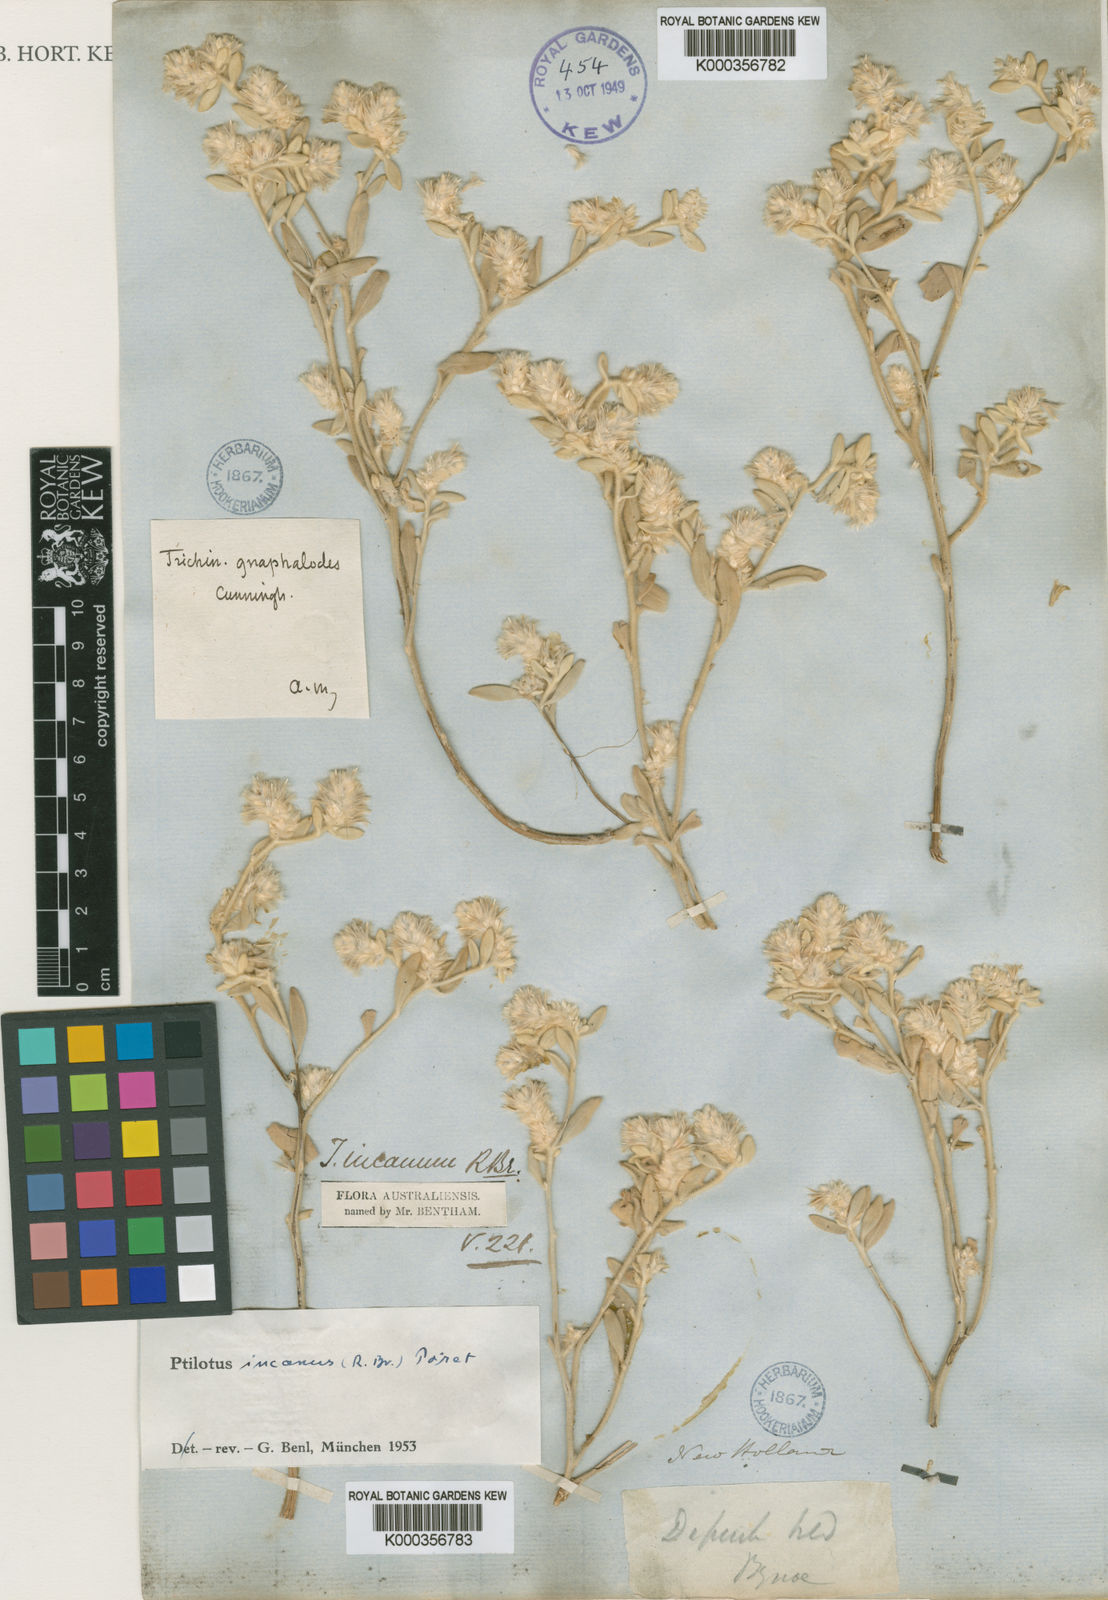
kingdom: Plantae
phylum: Tracheophyta
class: Magnoliopsida
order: Caryophyllales
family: Amaranthaceae
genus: Ptilotus
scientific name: Ptilotus incanus
